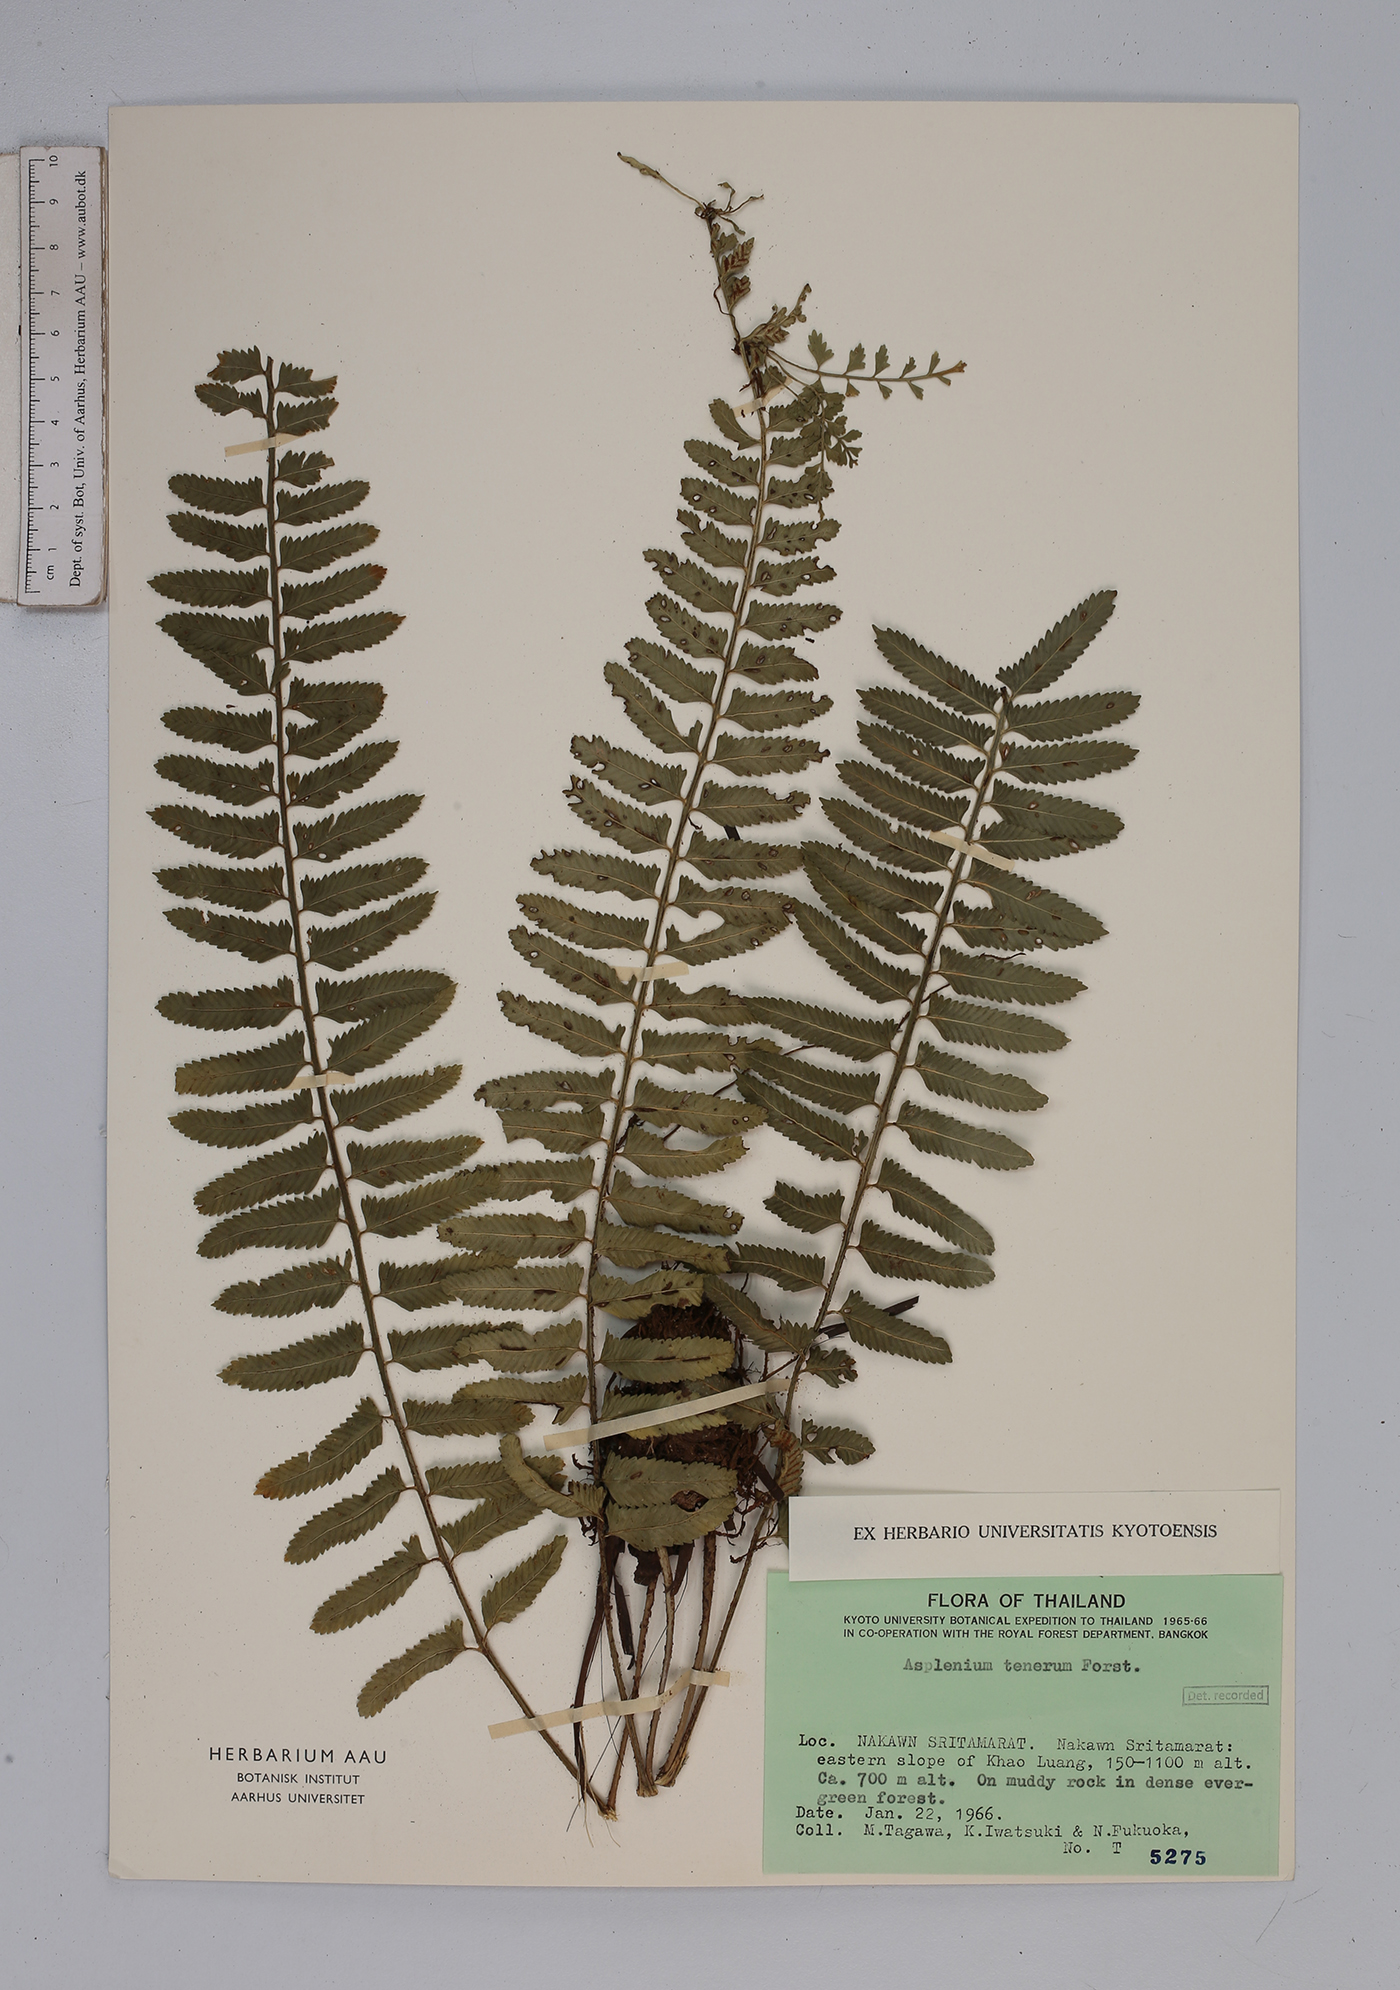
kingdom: Plantae
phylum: Tracheophyta
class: Polypodiopsida
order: Polypodiales
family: Aspleniaceae
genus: Asplenium
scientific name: Asplenium tenerum
